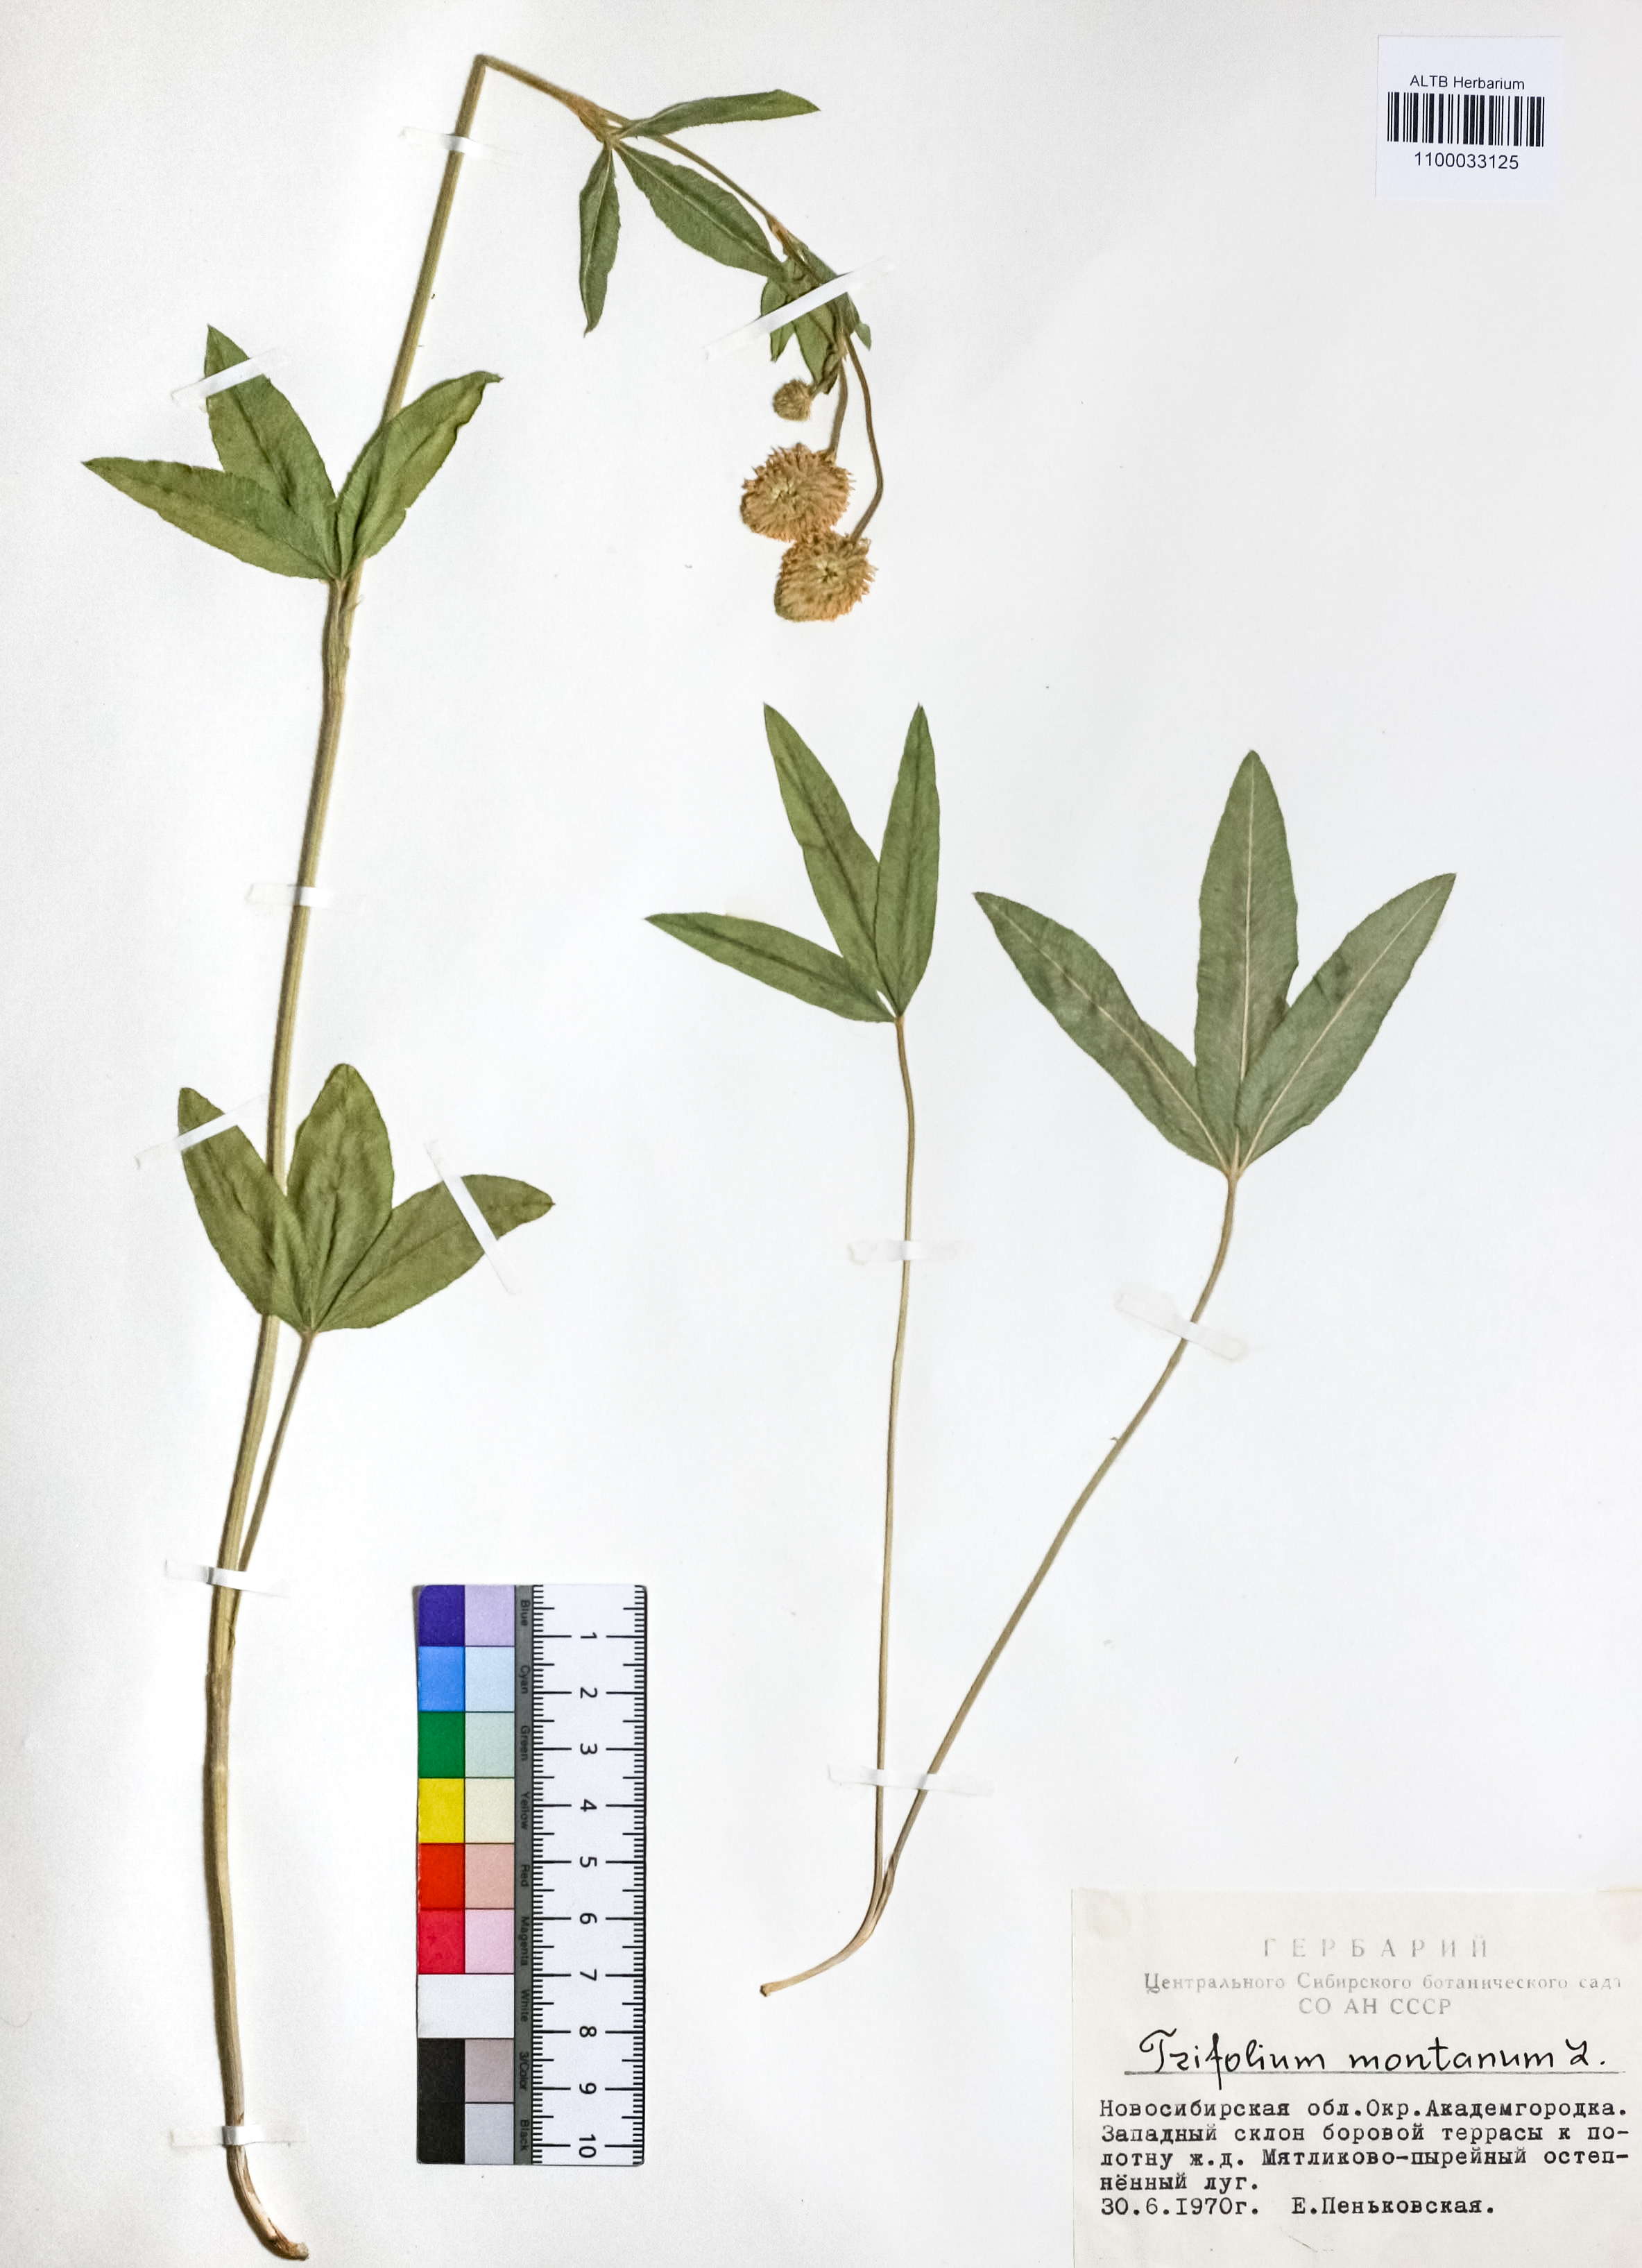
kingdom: Plantae
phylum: Tracheophyta
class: Magnoliopsida
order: Fabales
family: Fabaceae
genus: Trifolium
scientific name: Trifolium montanum
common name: Mountain clover
